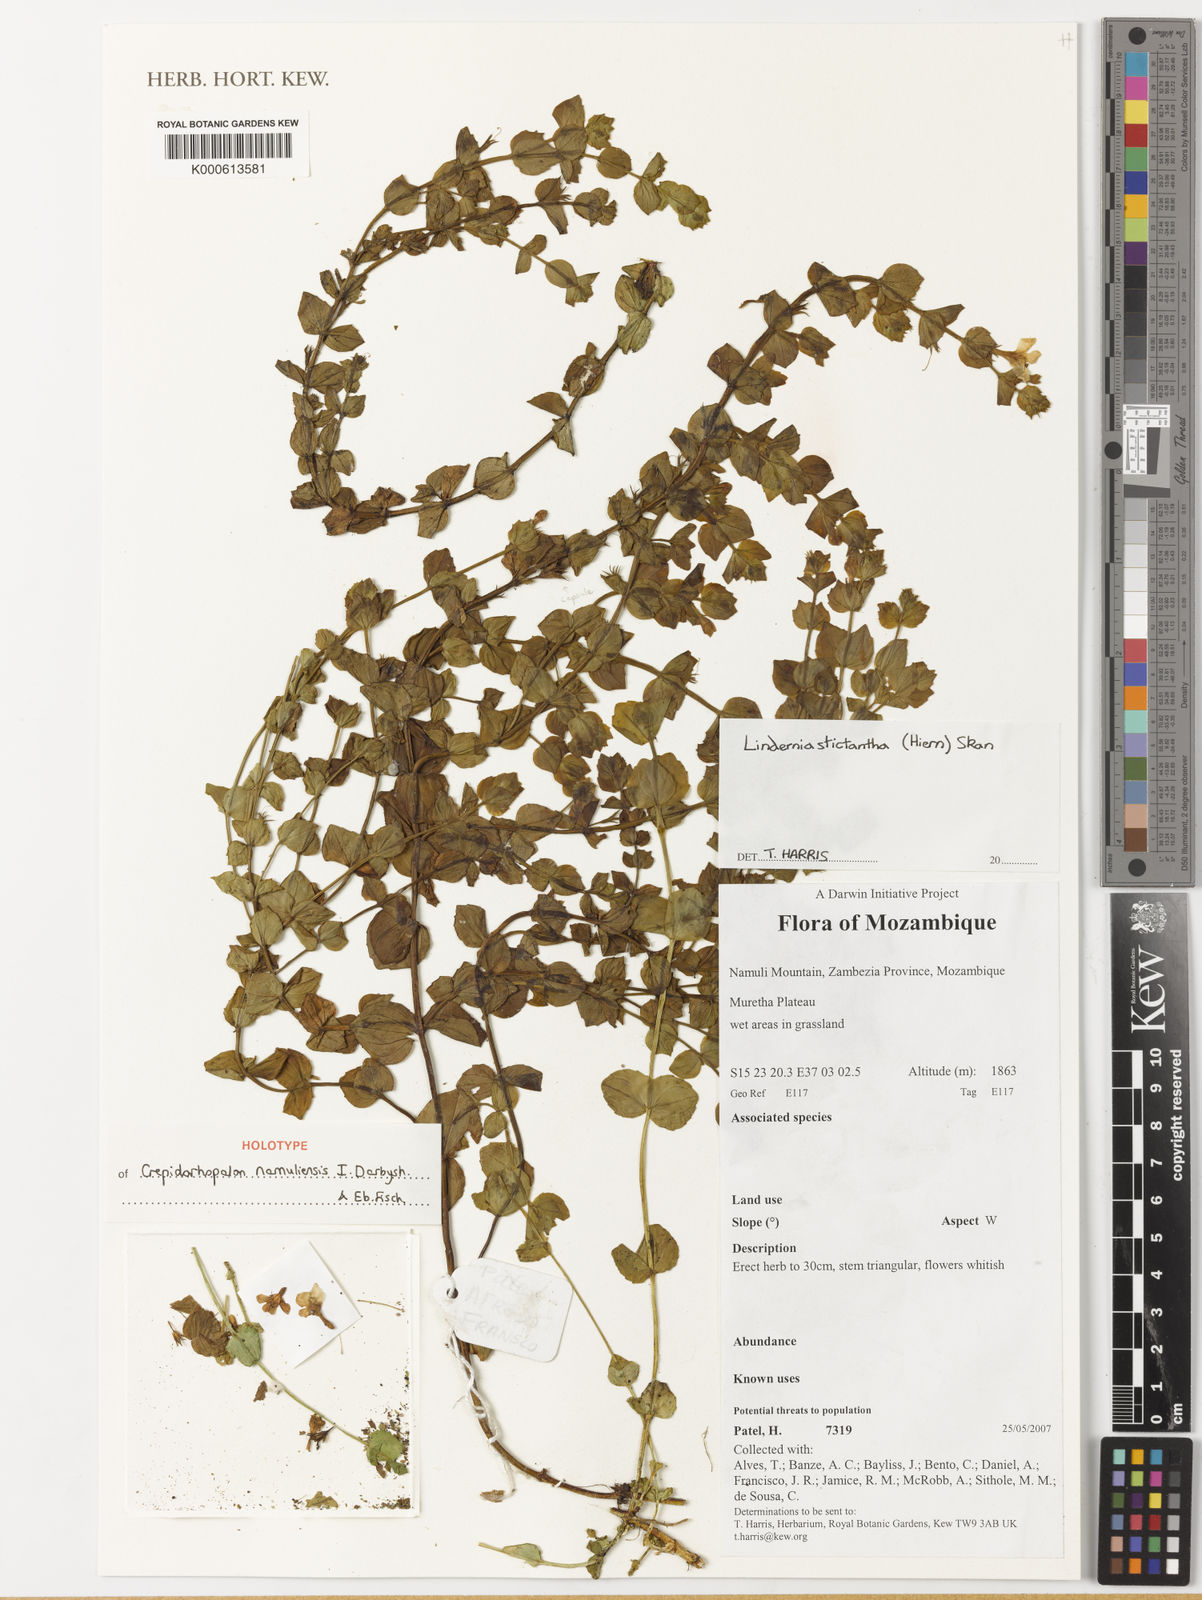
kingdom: Plantae
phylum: Tracheophyta
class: Magnoliopsida
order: Lamiales
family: Linderniaceae
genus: Crepidorhopalon
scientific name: Crepidorhopalon
